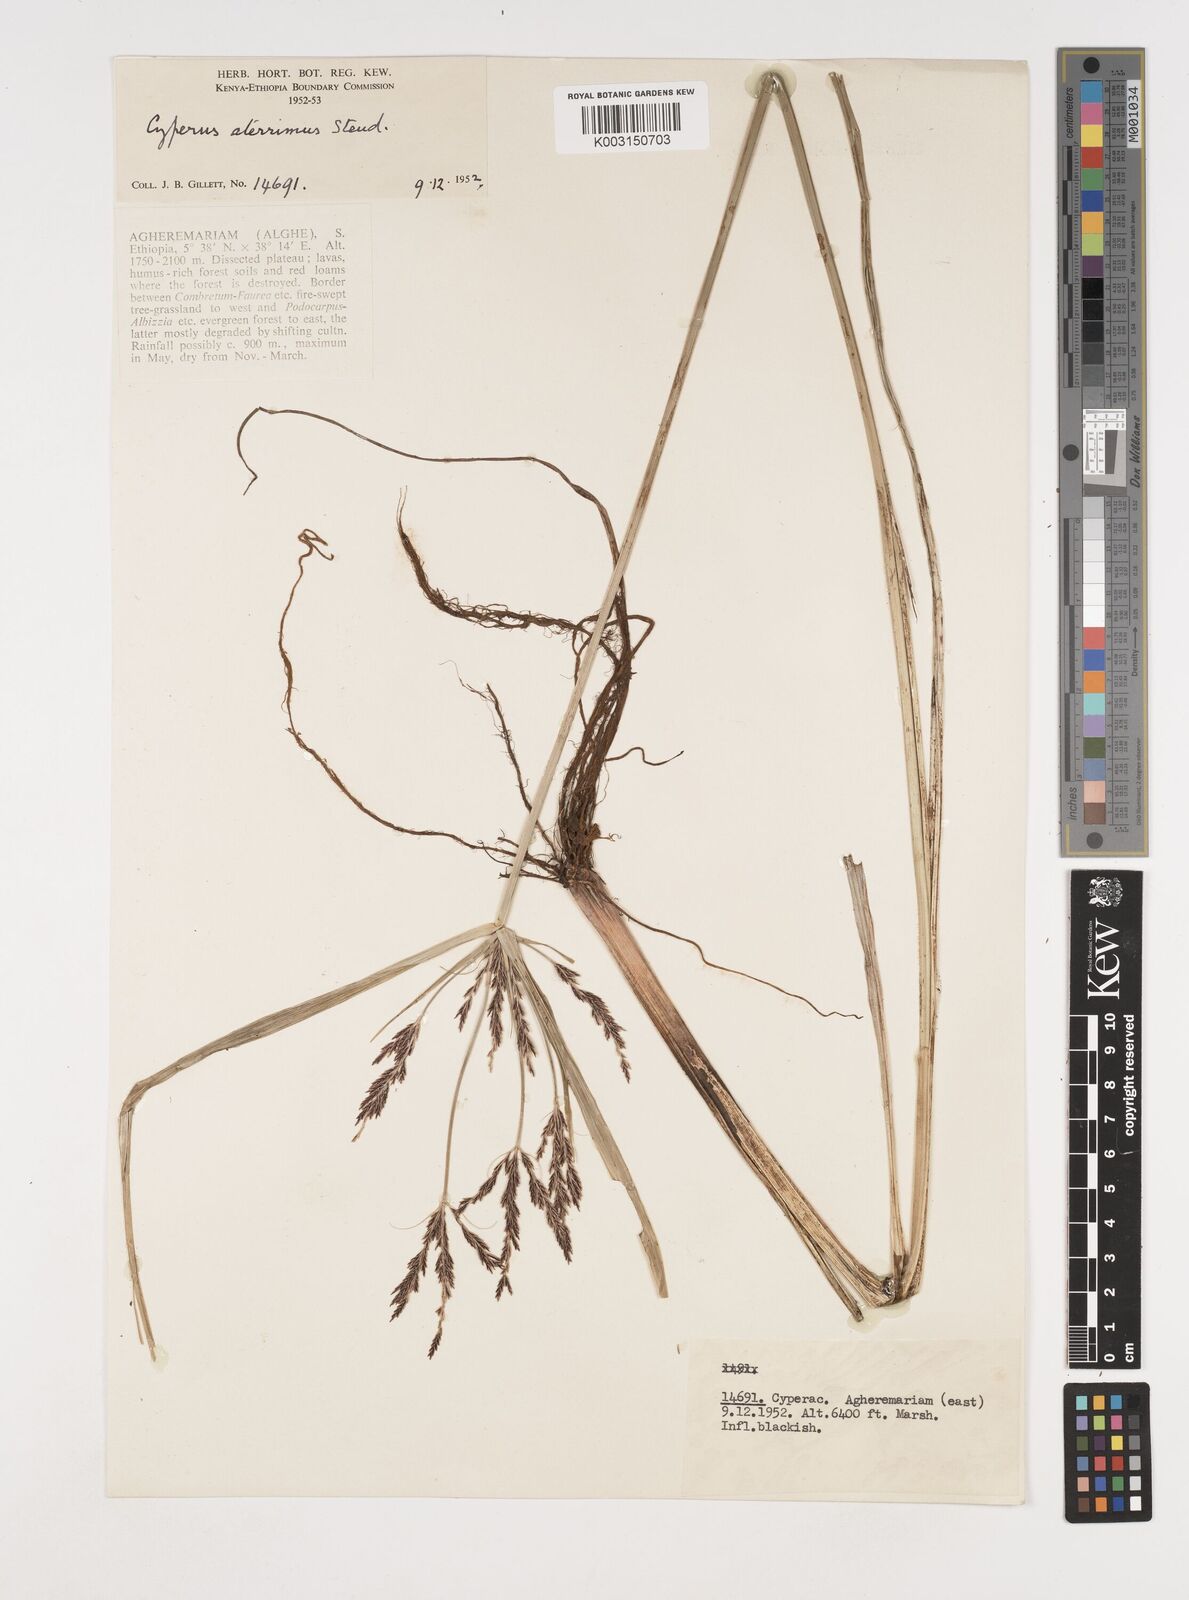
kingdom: Plantae
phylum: Tracheophyta
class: Liliopsida
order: Poales
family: Cyperaceae
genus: Cyperus
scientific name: Cyperus aterrimus
